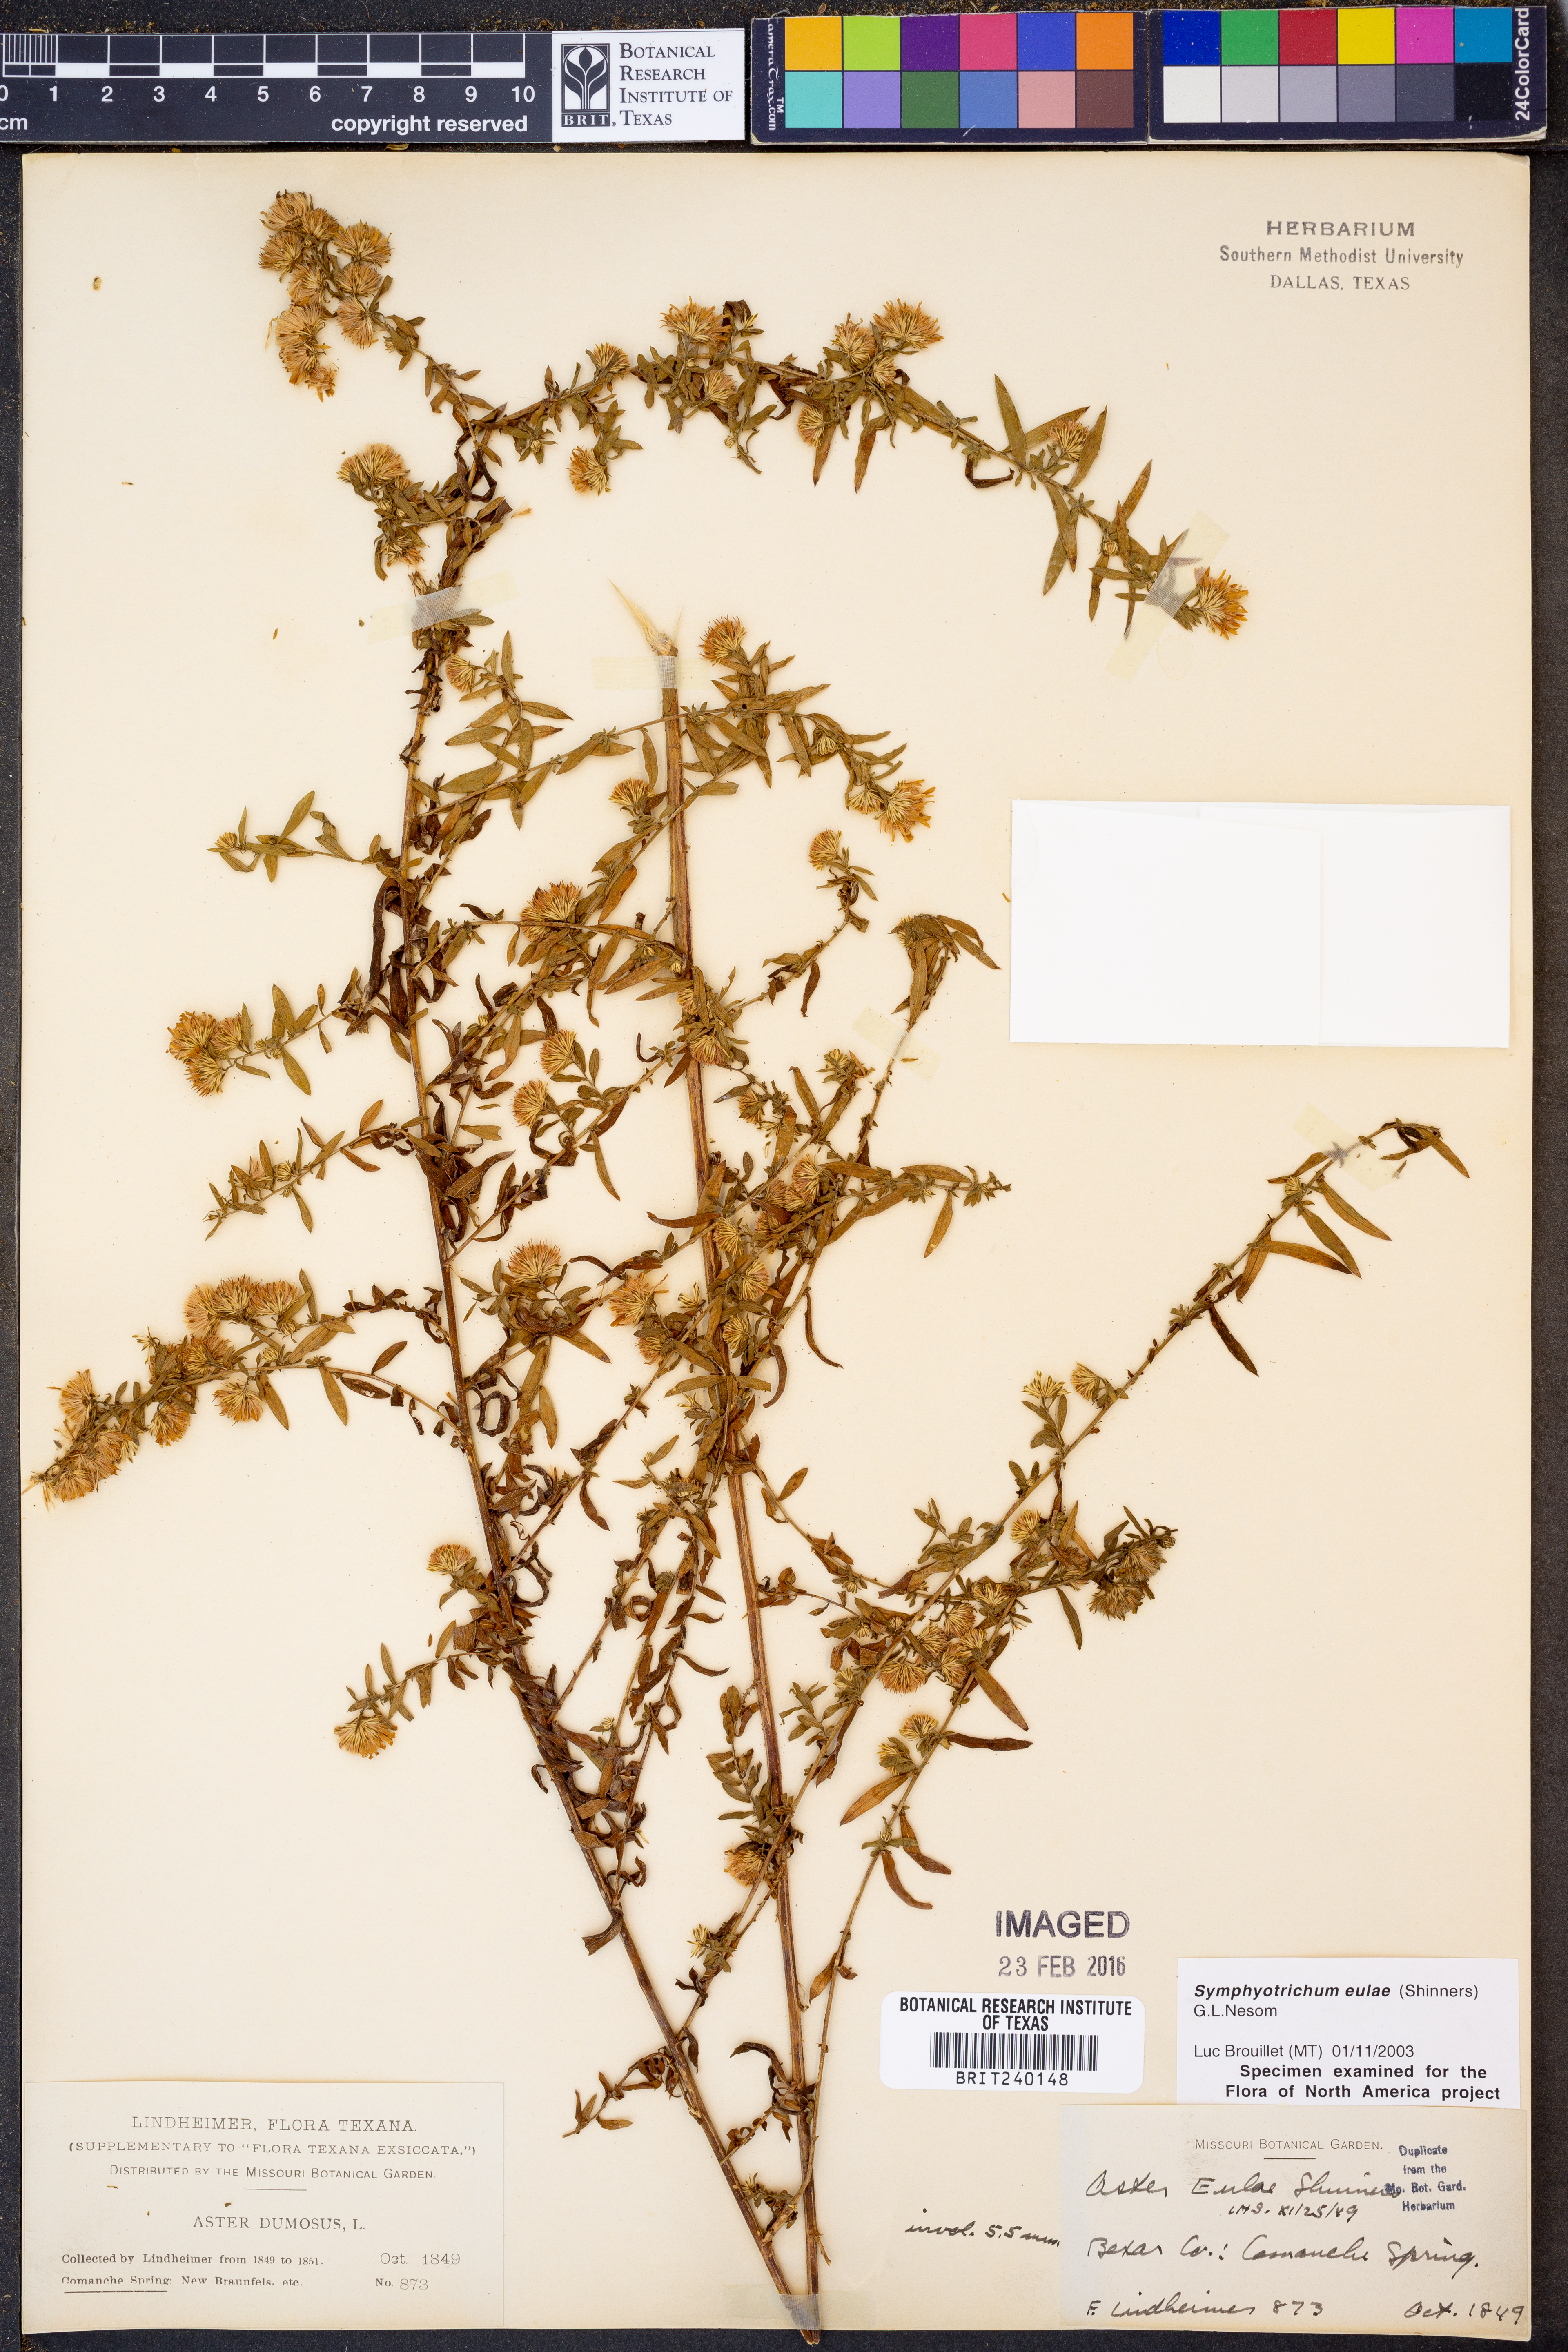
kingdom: Plantae
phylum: Tracheophyta
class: Magnoliopsida
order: Asterales
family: Asteraceae
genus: Symphyotrichum
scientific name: Symphyotrichum eulae
